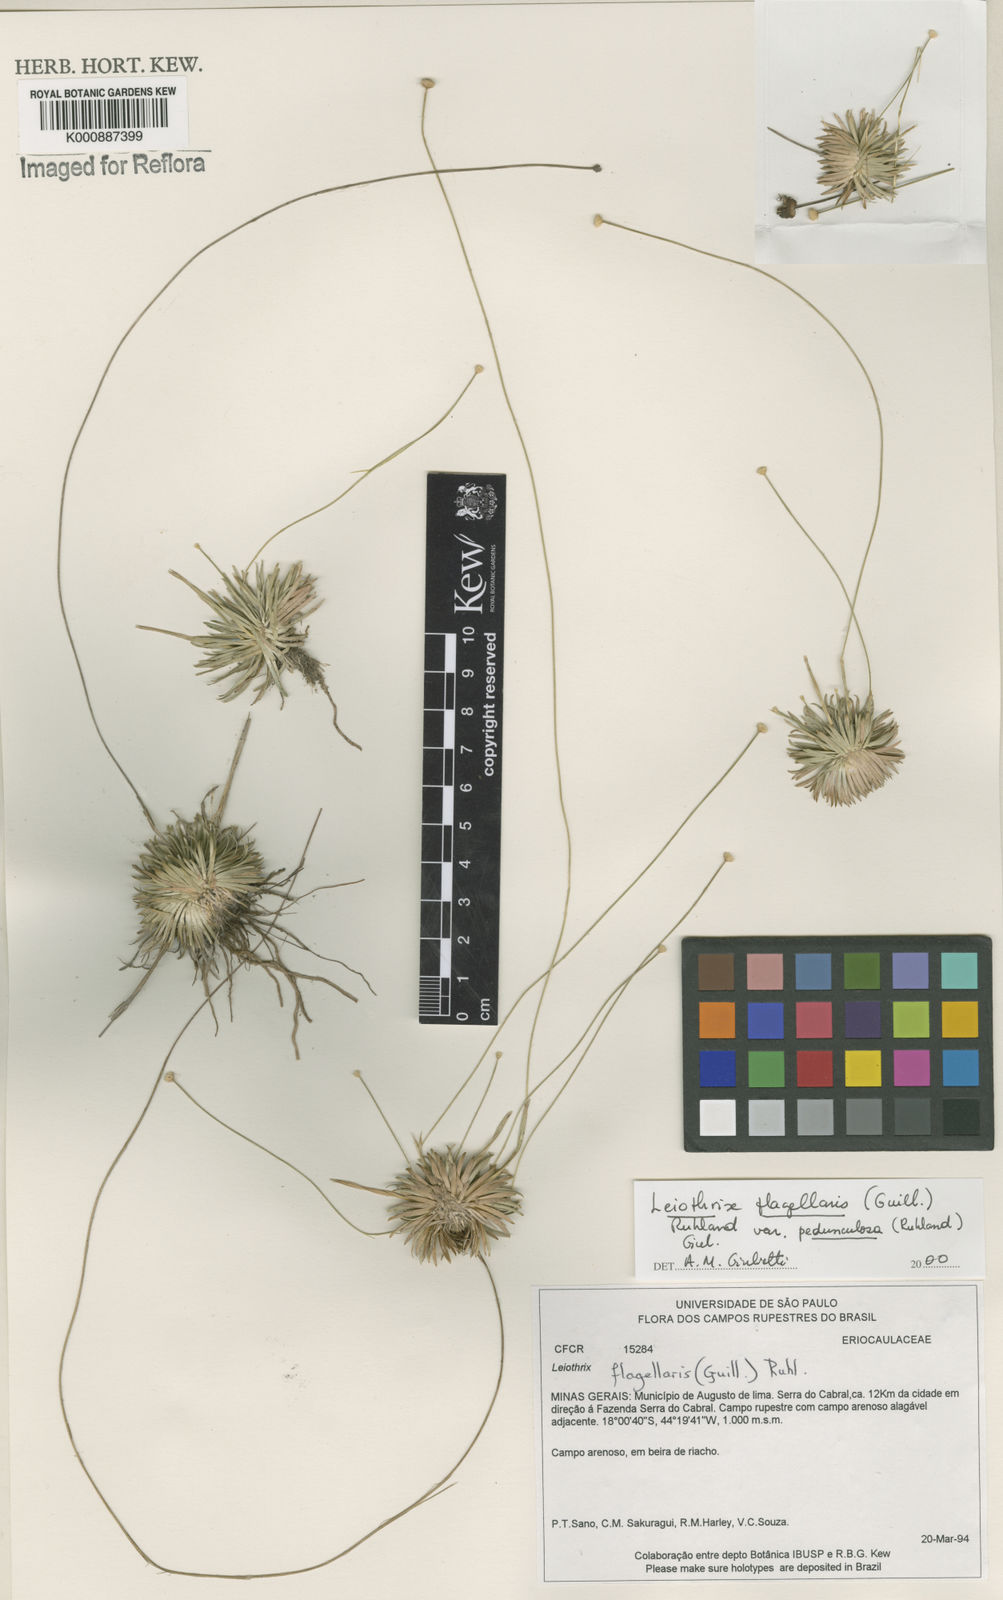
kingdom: Plantae
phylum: Tracheophyta
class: Liliopsida
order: Poales
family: Eriocaulaceae
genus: Leiothrix
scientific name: Leiothrix flagellaris
